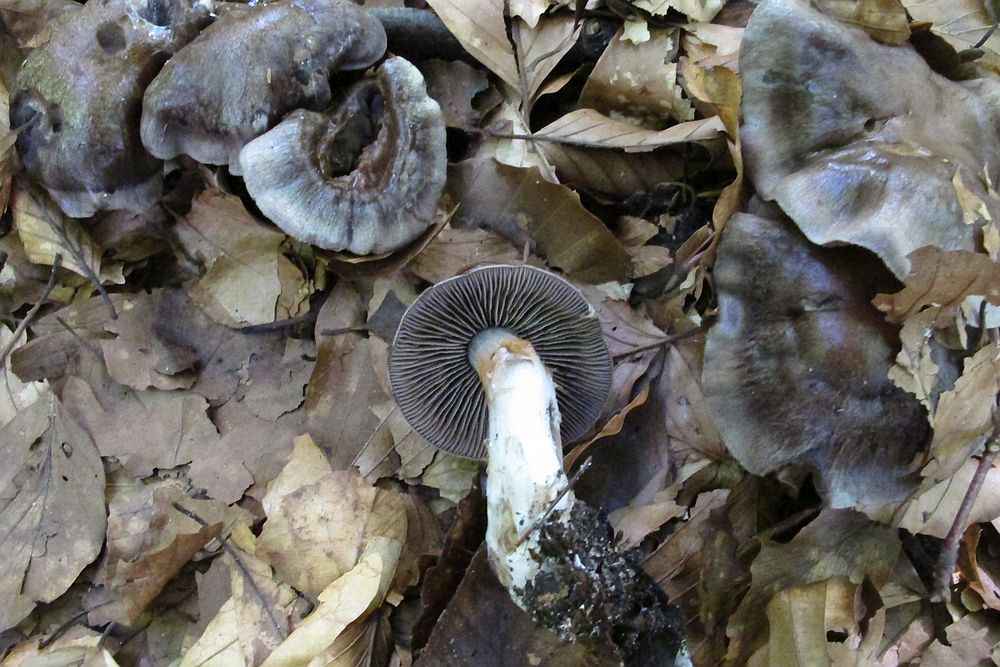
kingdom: Fungi
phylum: Basidiomycota
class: Agaricomycetes
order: Agaricales
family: Cortinariaceae
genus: Cortinarius
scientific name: Cortinarius
